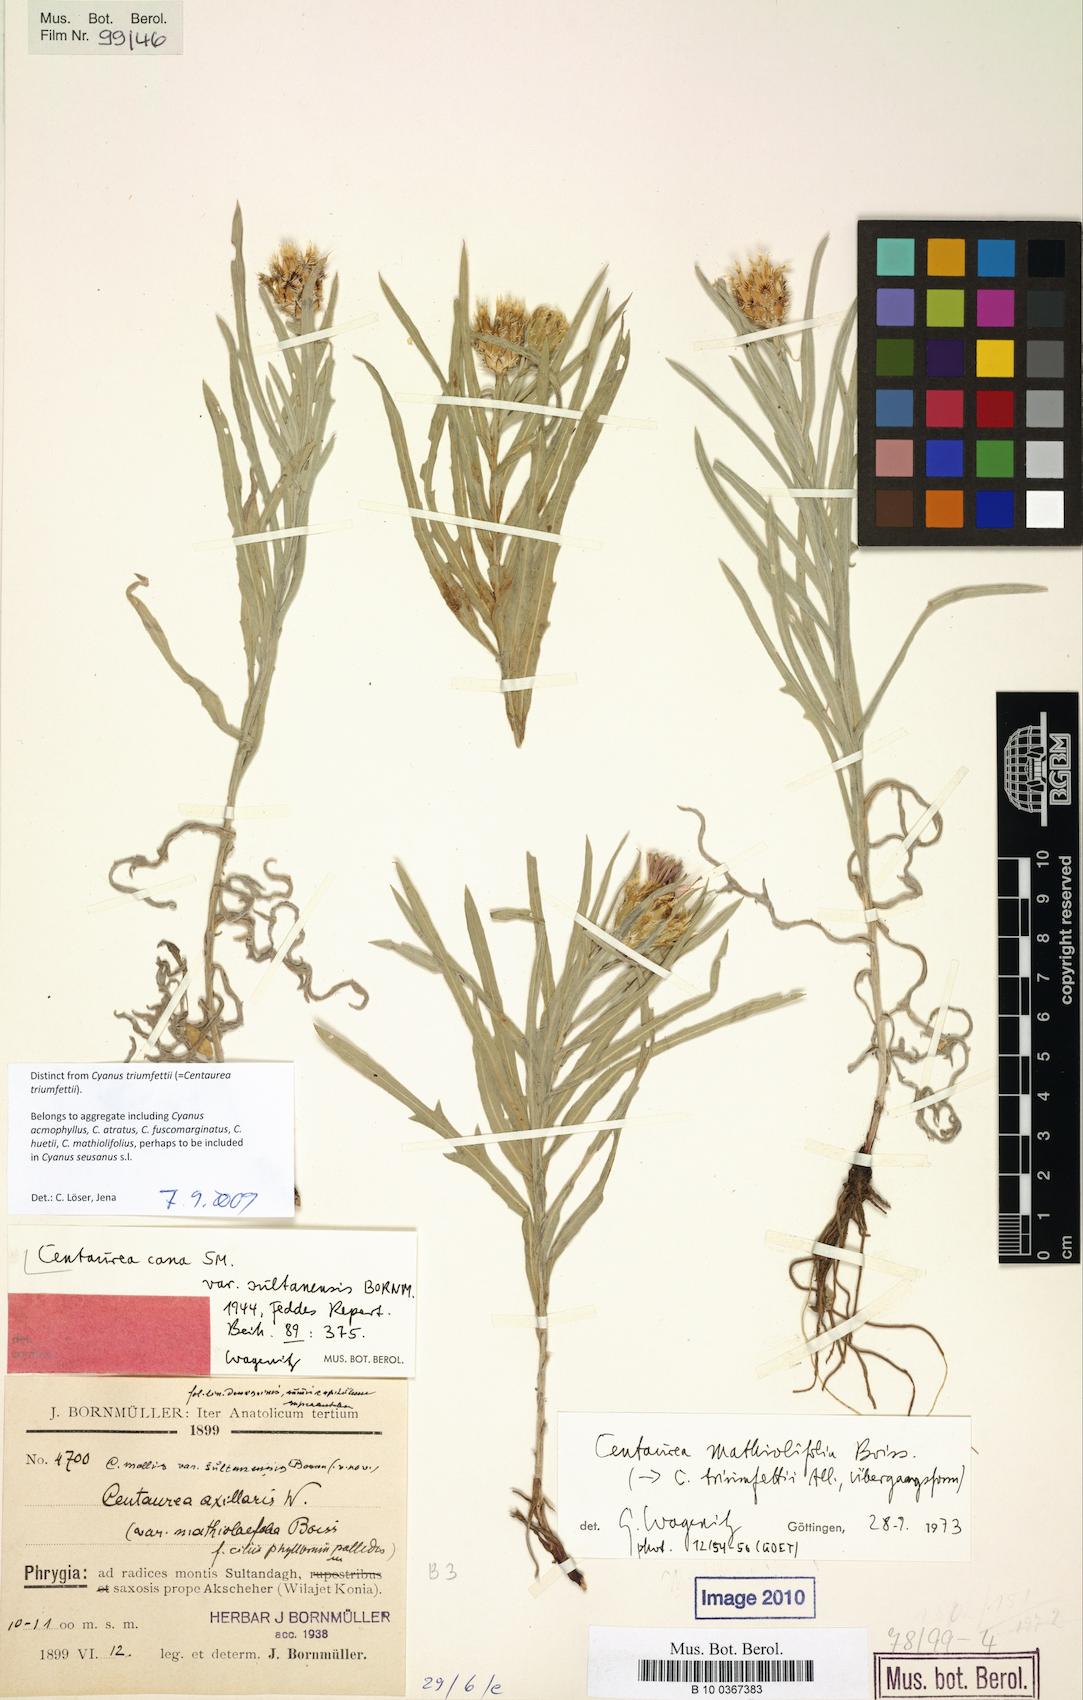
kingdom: Plantae
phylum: Tracheophyta
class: Magnoliopsida
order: Asterales
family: Asteraceae
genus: Centaurea
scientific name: Centaurea matthiolifolia
